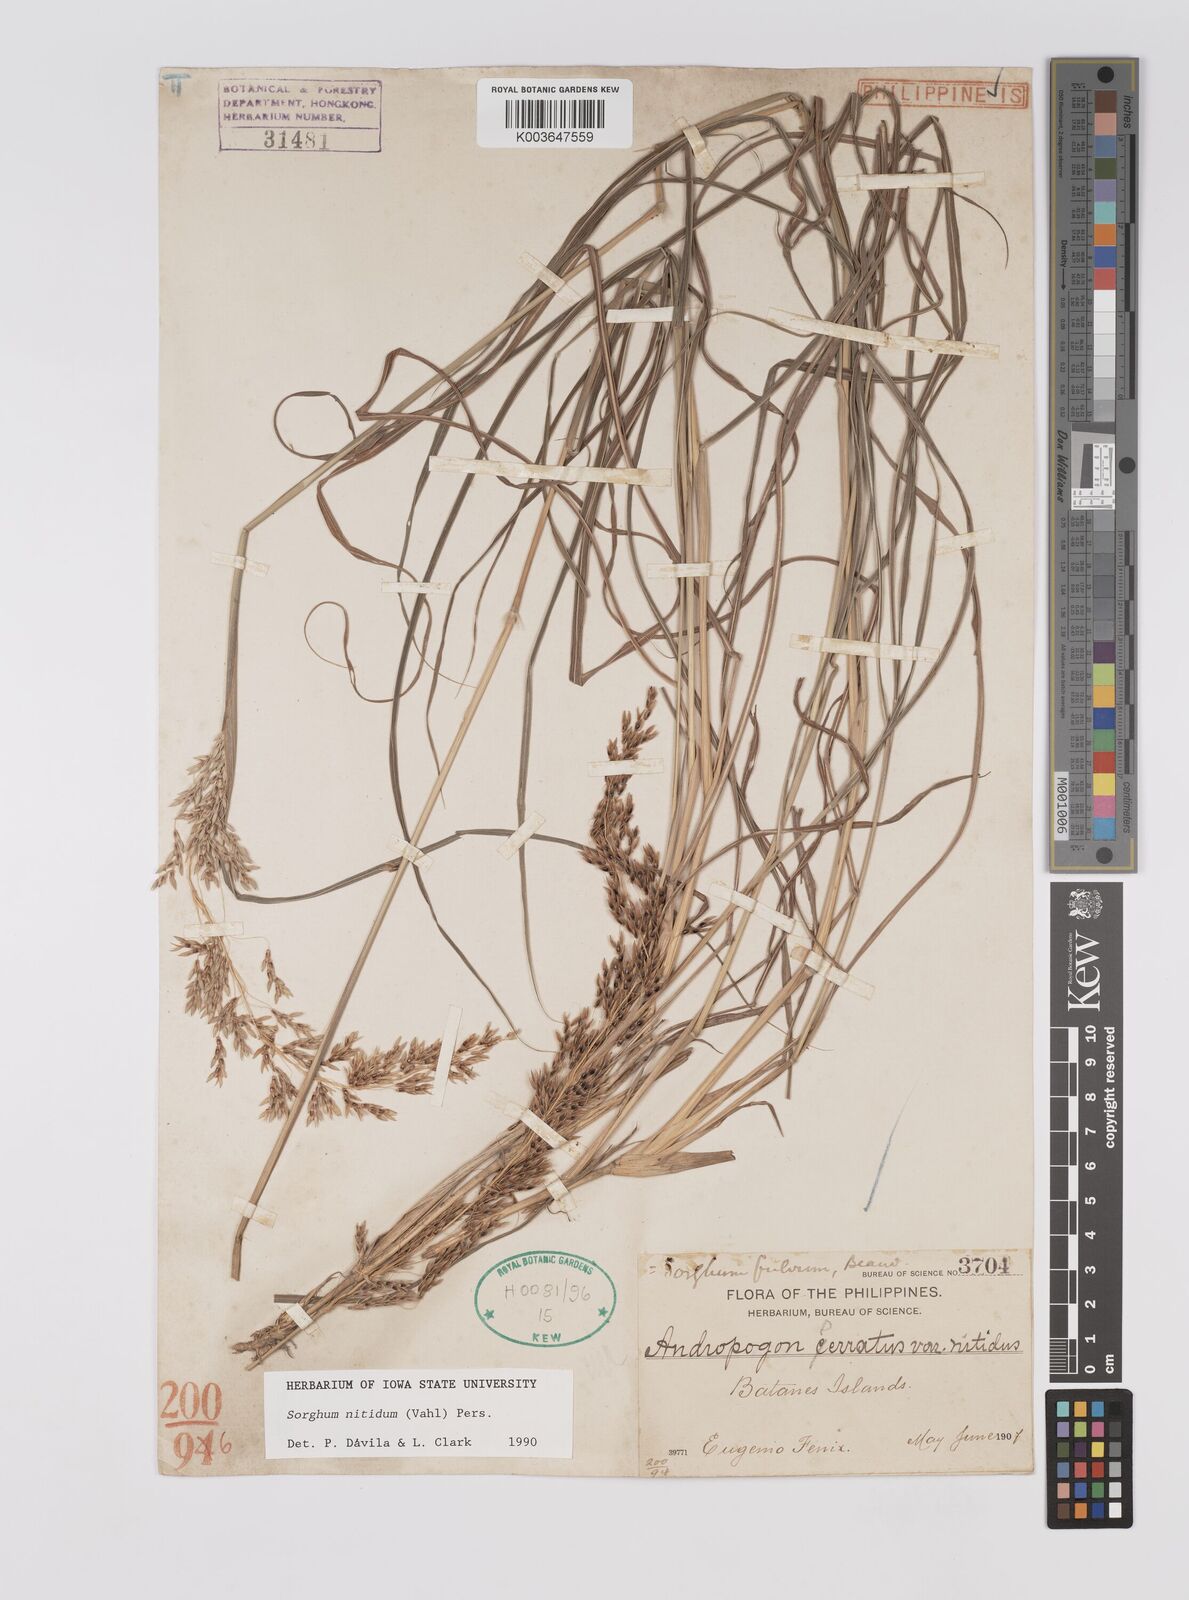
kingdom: Plantae
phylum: Tracheophyta
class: Liliopsida
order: Poales
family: Poaceae
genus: Sorghum
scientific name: Sorghum nitidum
